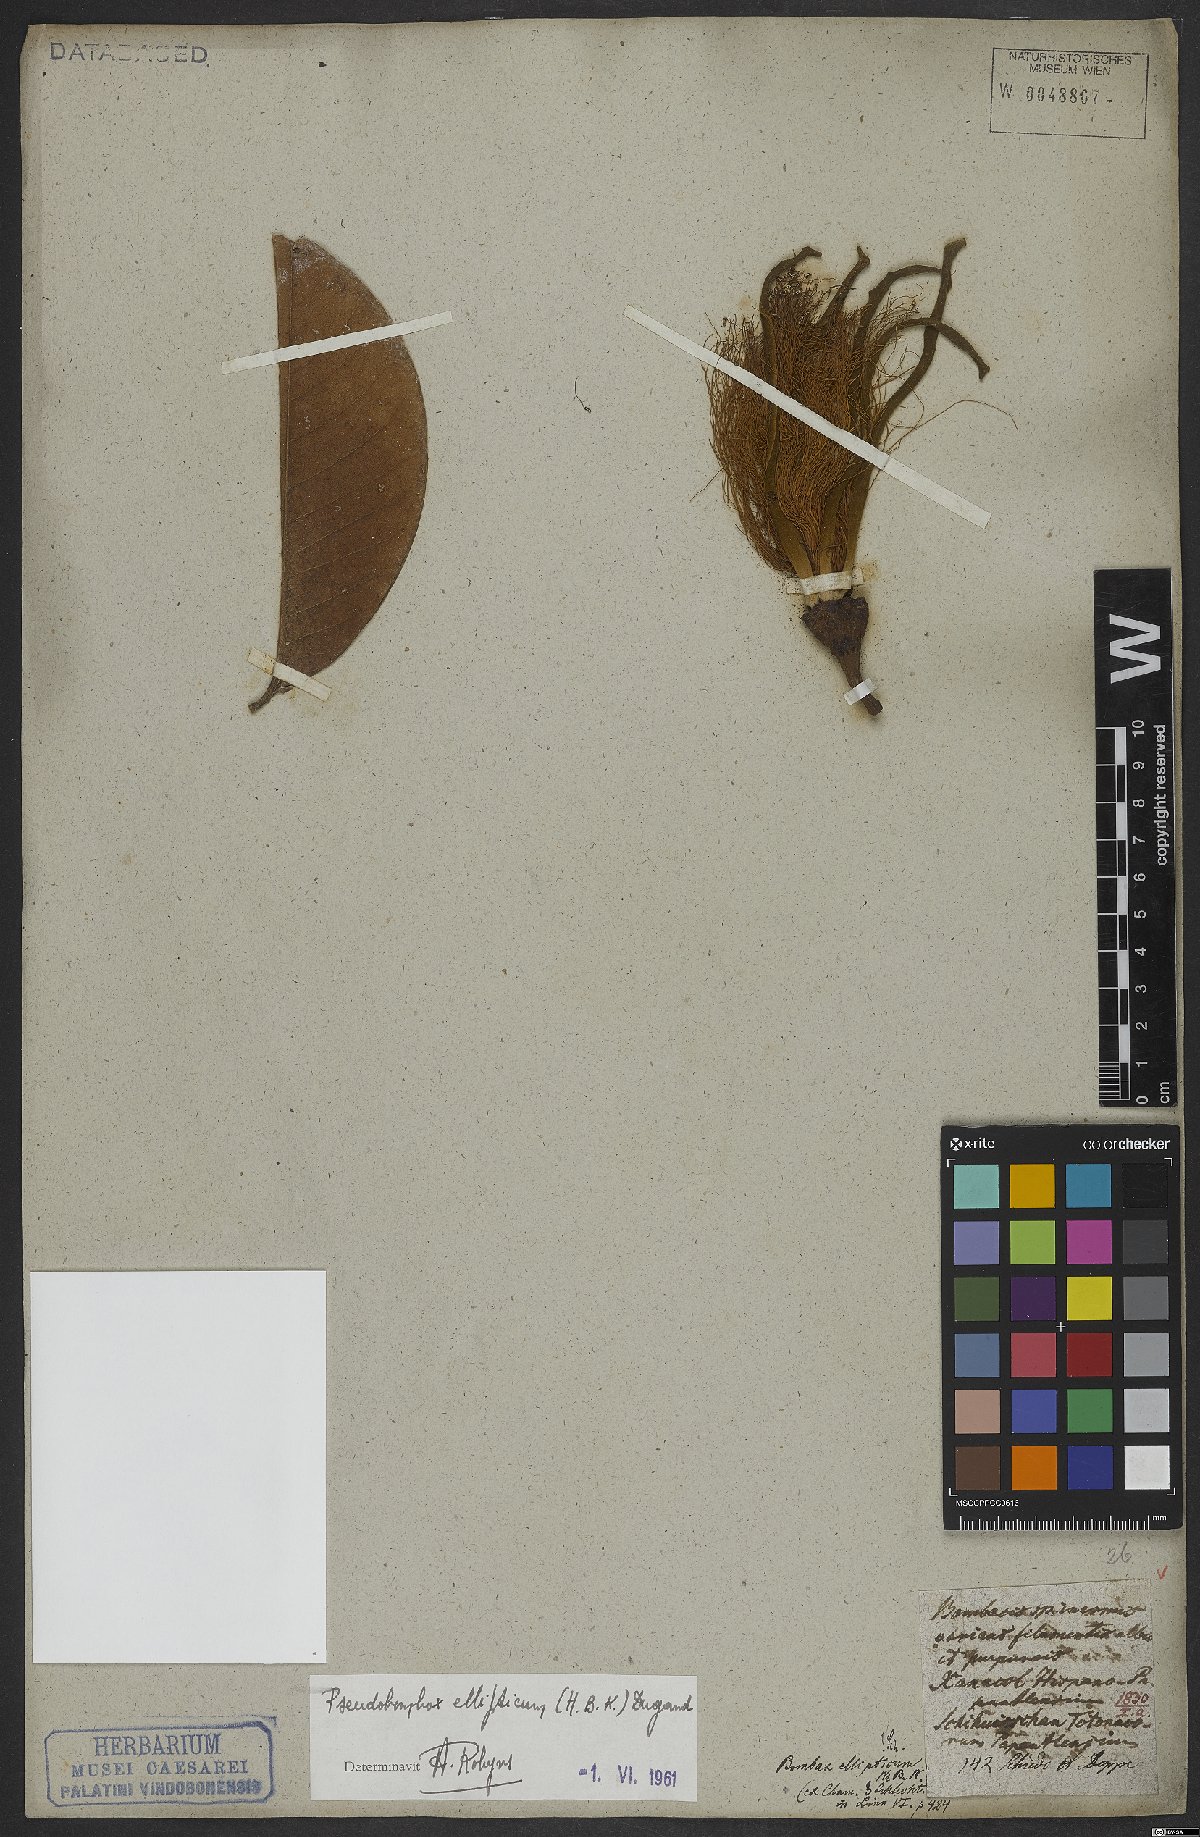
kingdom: Plantae
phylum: Tracheophyta
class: Magnoliopsida
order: Malvales
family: Malvaceae
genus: Pseudobombax
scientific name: Pseudobombax ellipticum
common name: Shaving-brush-tree
